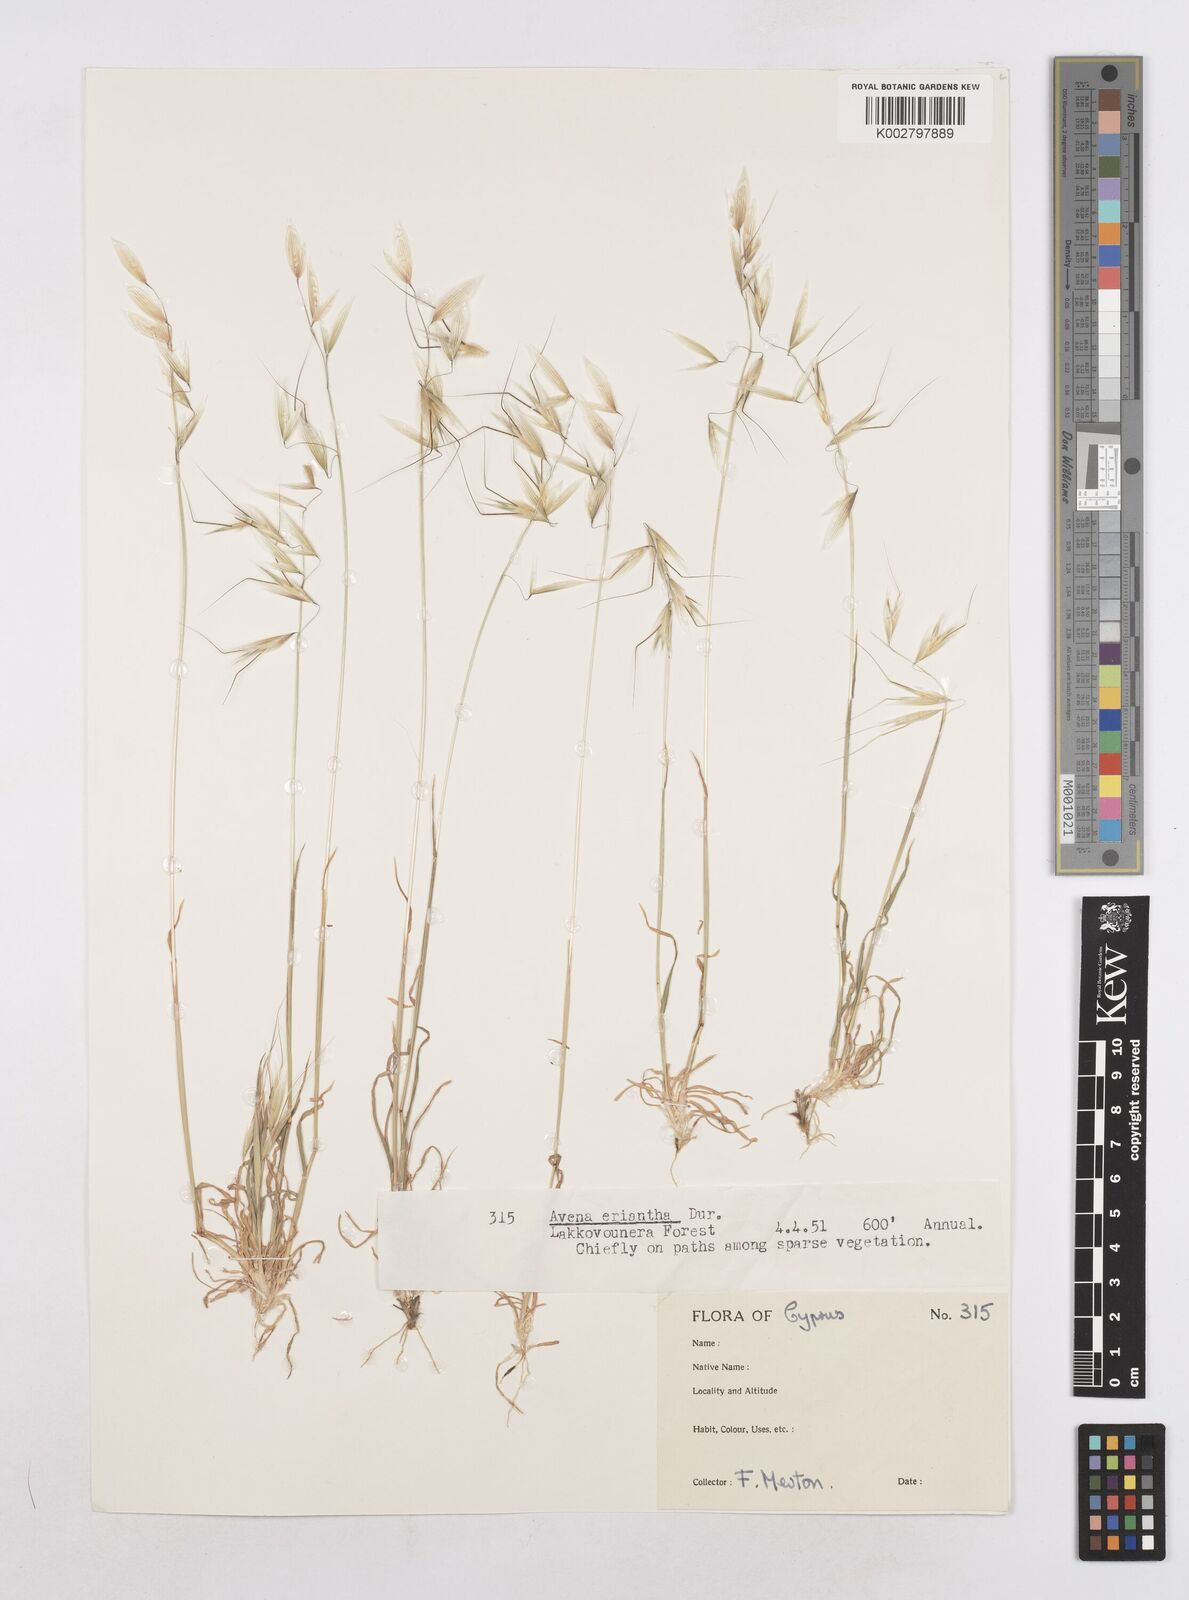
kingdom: Plantae
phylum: Tracheophyta
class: Liliopsida
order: Poales
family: Poaceae
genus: Avena
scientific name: Avena eriantha
